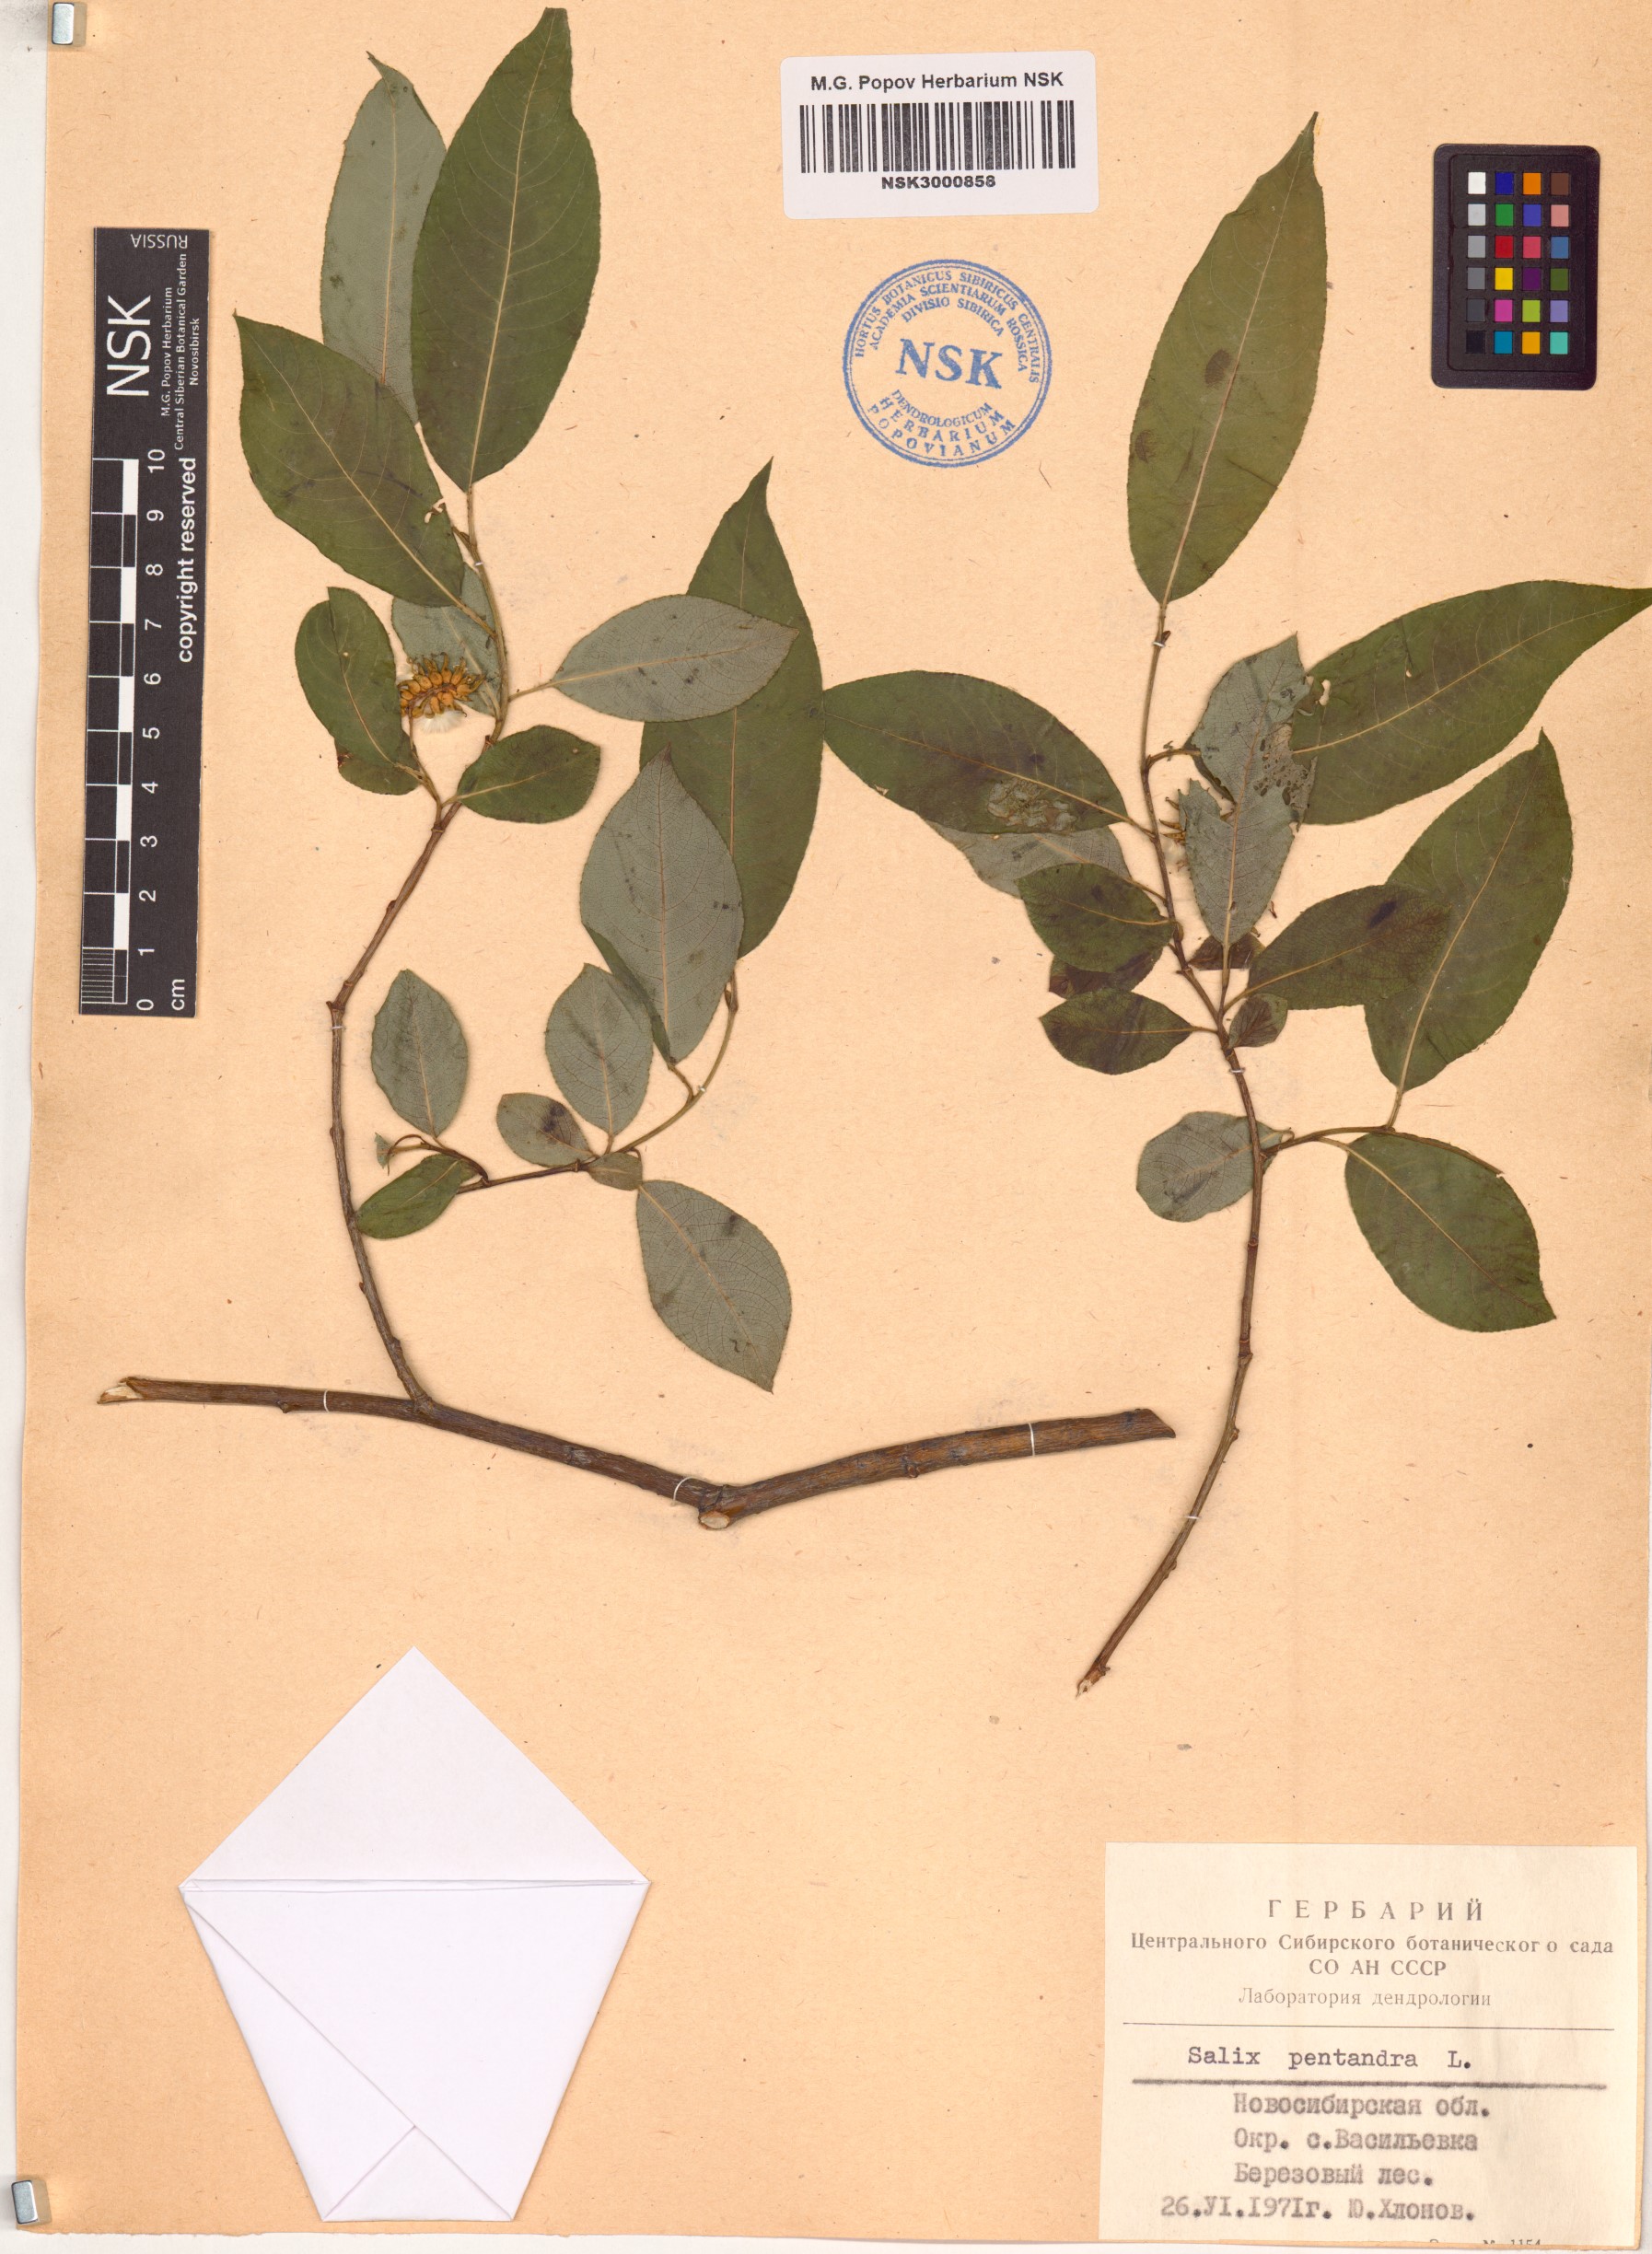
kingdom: Plantae
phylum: Tracheophyta
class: Magnoliopsida
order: Malpighiales
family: Salicaceae
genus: Salix
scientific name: Salix pentandra
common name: Bay willow
